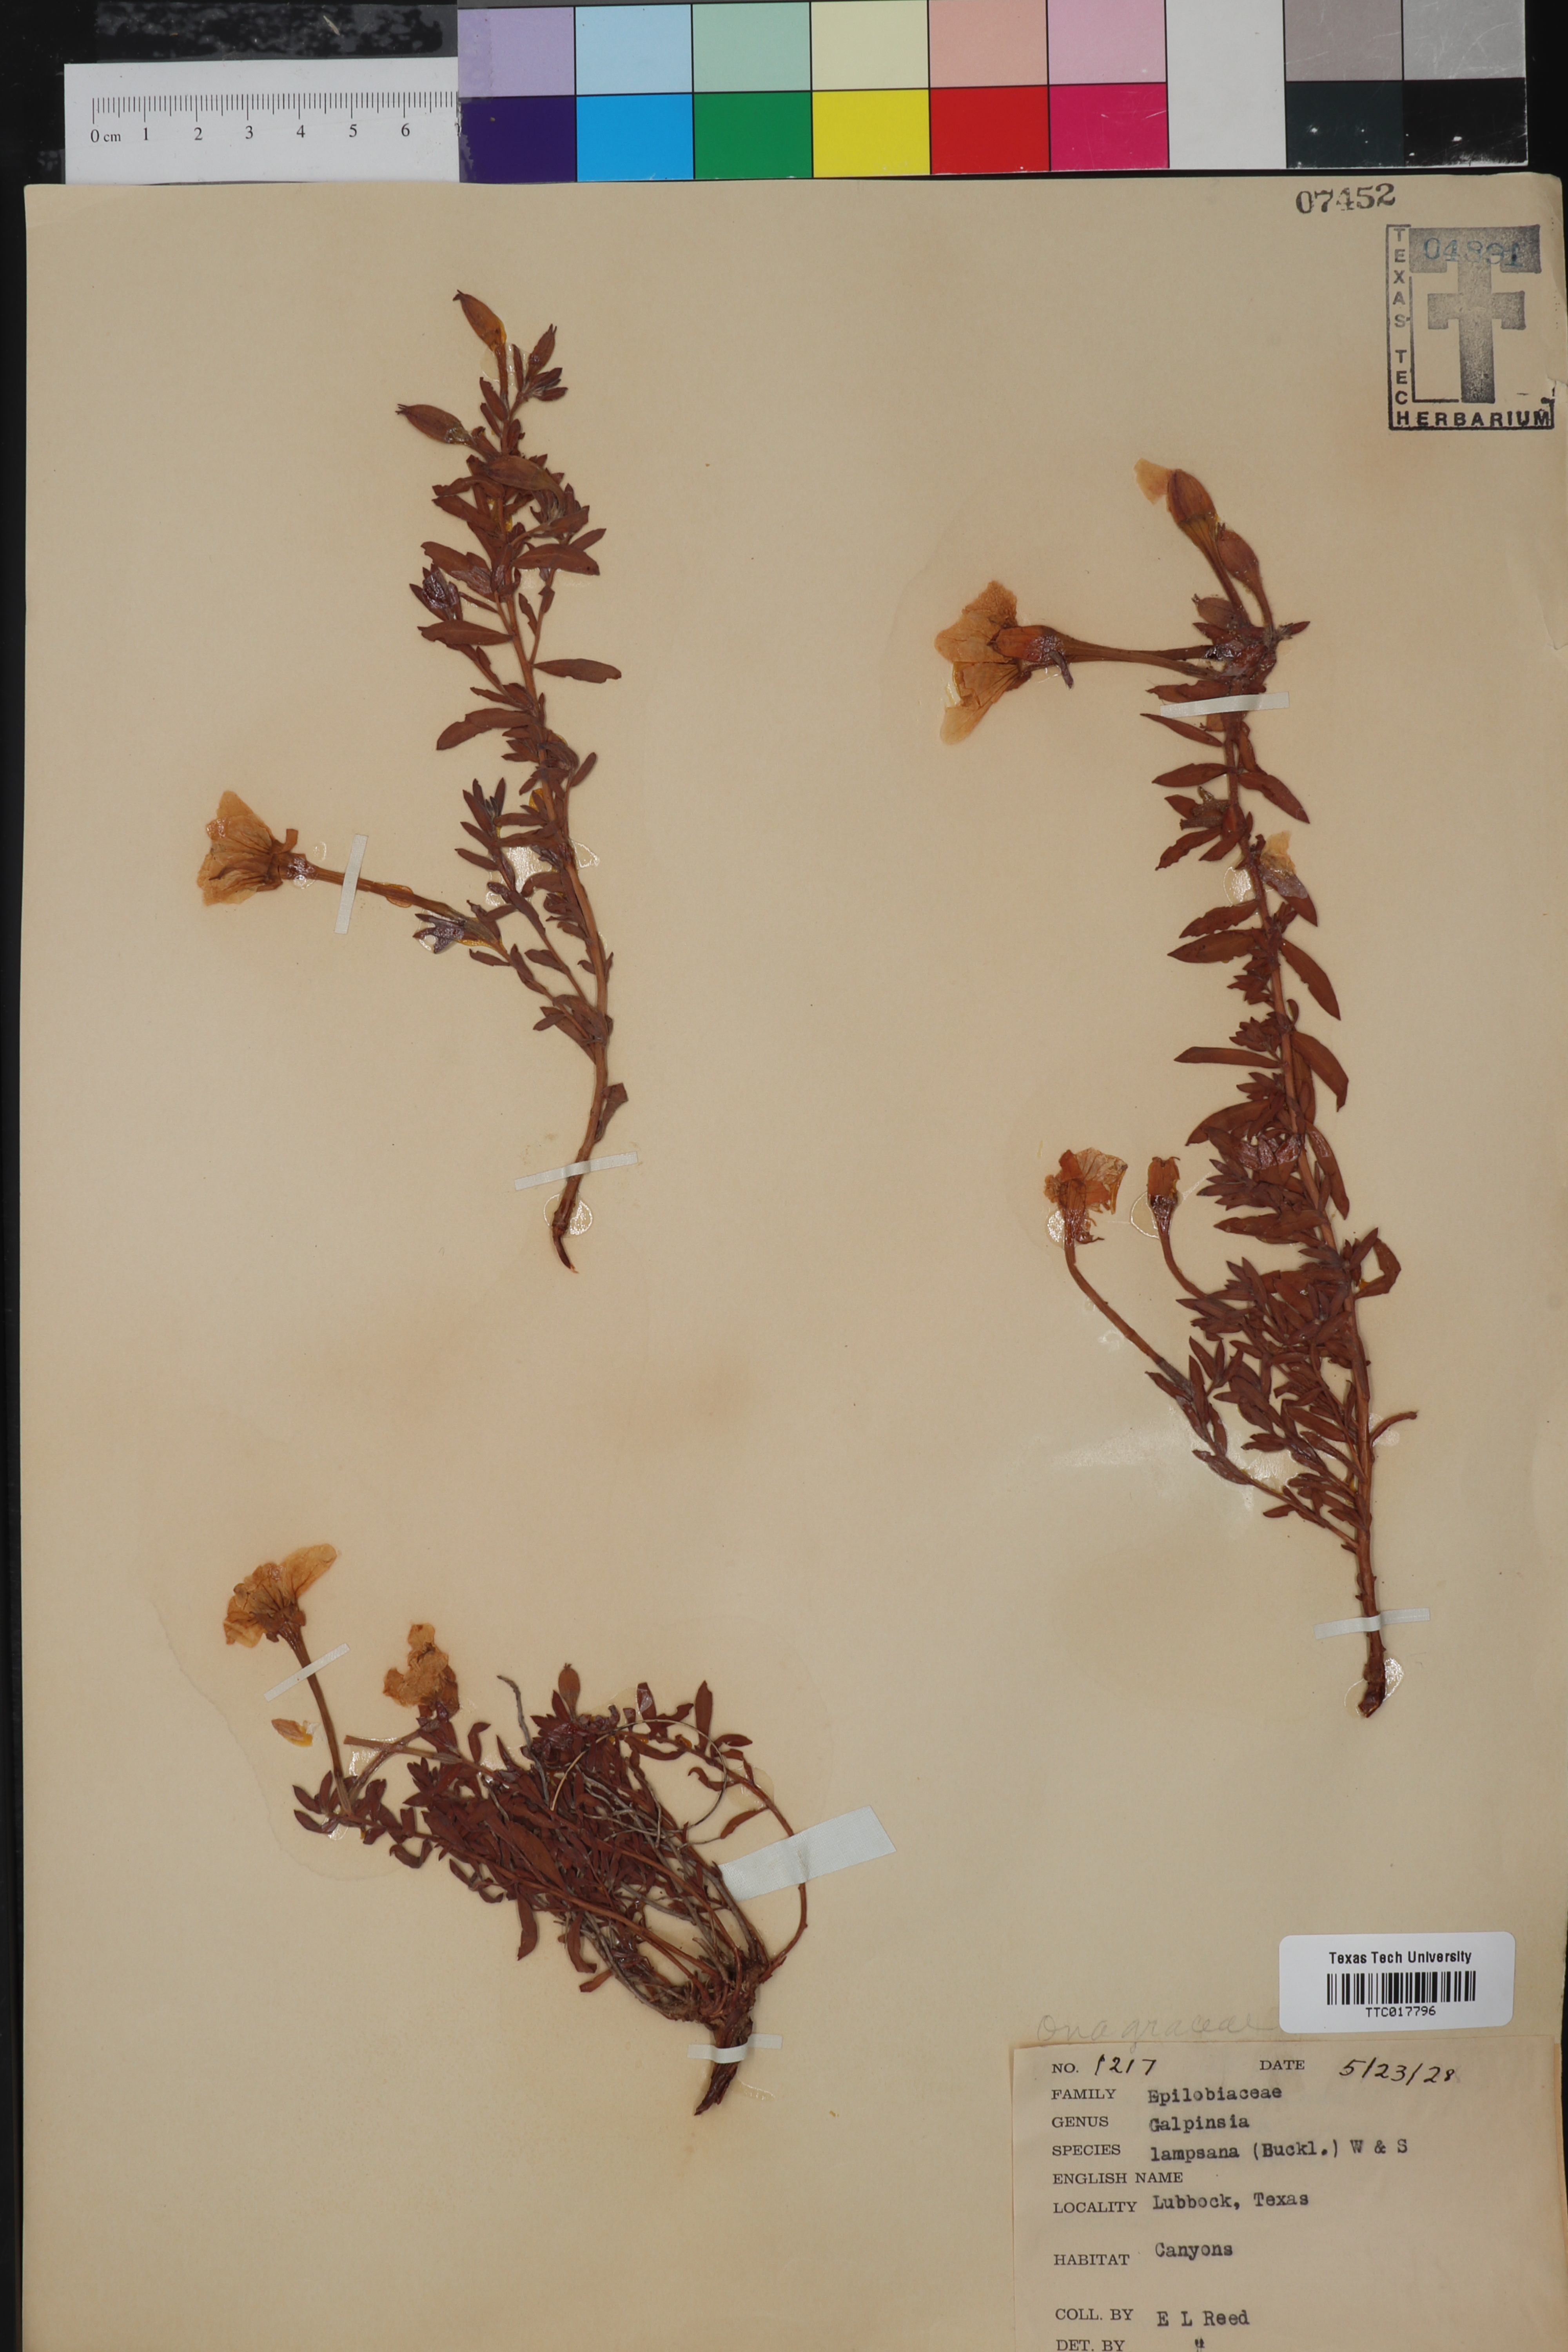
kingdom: Plantae
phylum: Tracheophyta
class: Magnoliopsida
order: Myrtales
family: Onagraceae
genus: Oenothera
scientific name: Oenothera hartwegii
